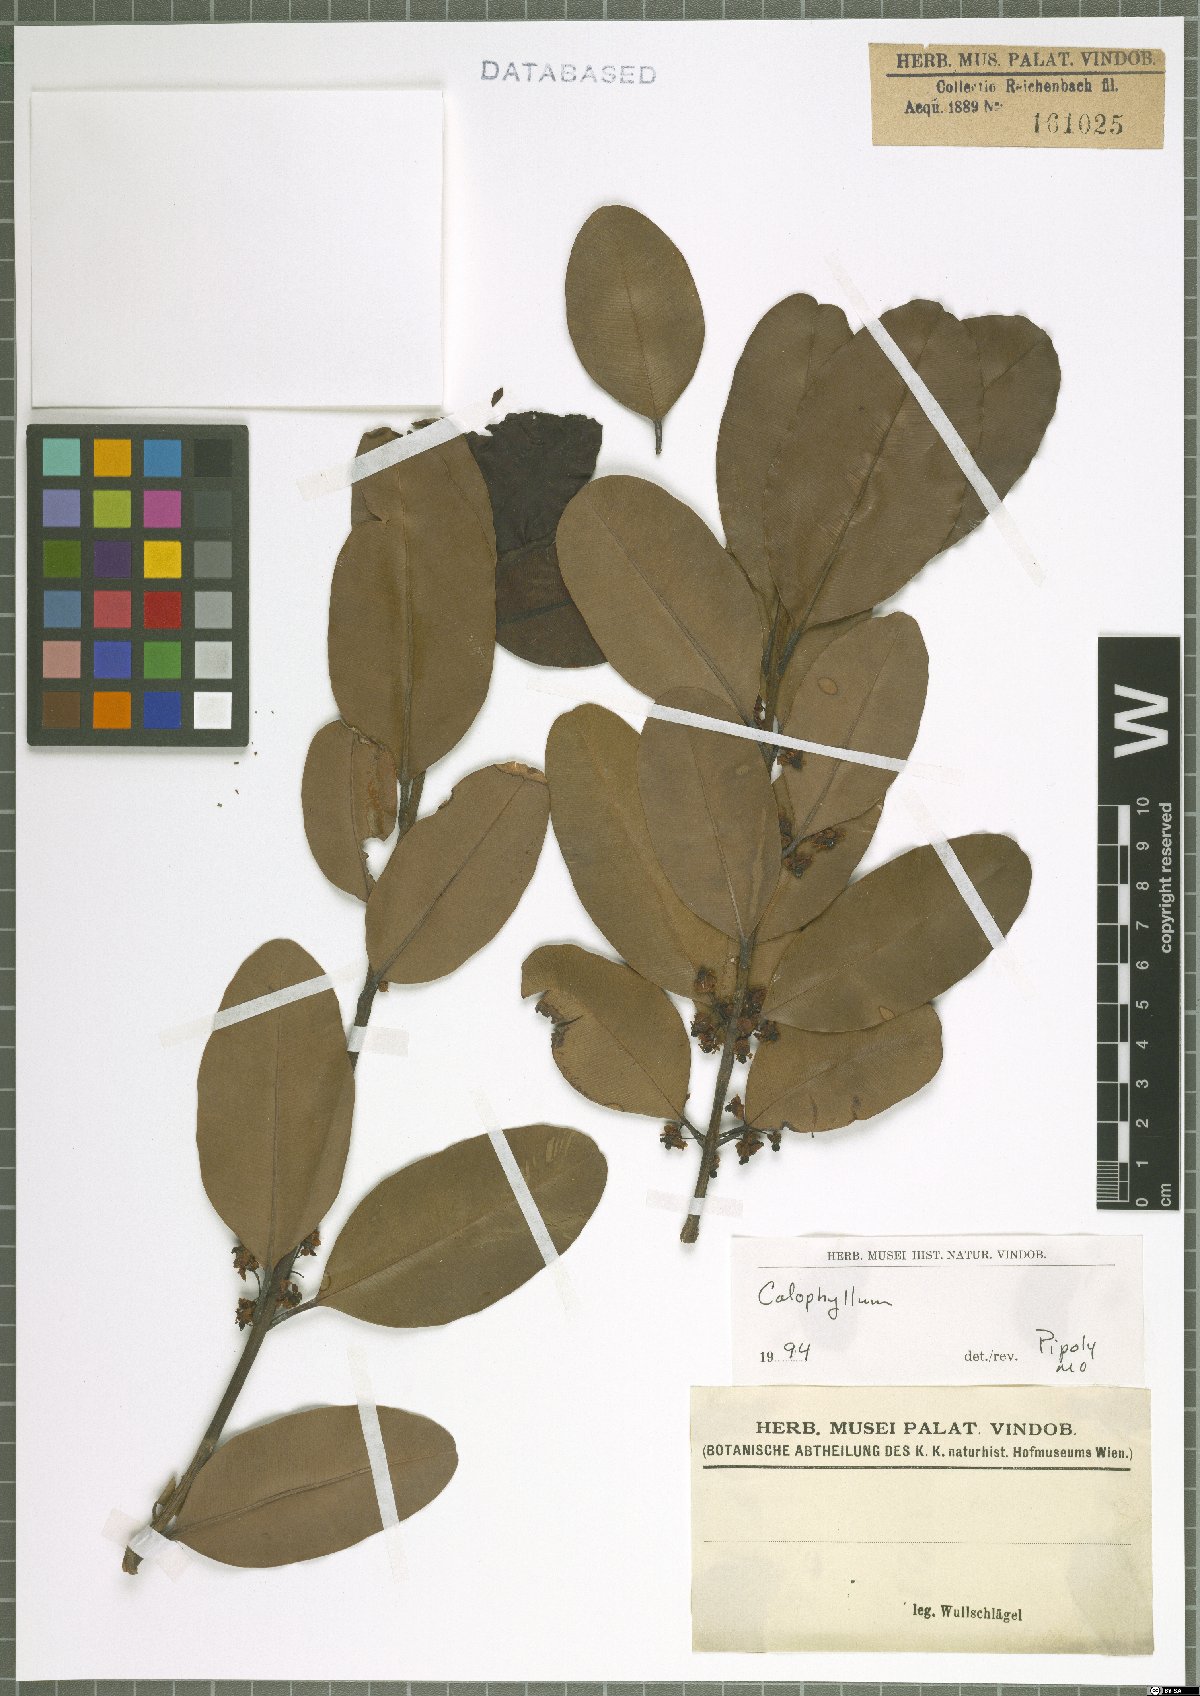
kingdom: Plantae
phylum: Tracheophyta
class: Magnoliopsida
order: Malpighiales
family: Calophyllaceae
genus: Calophyllum
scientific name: Calophyllum
